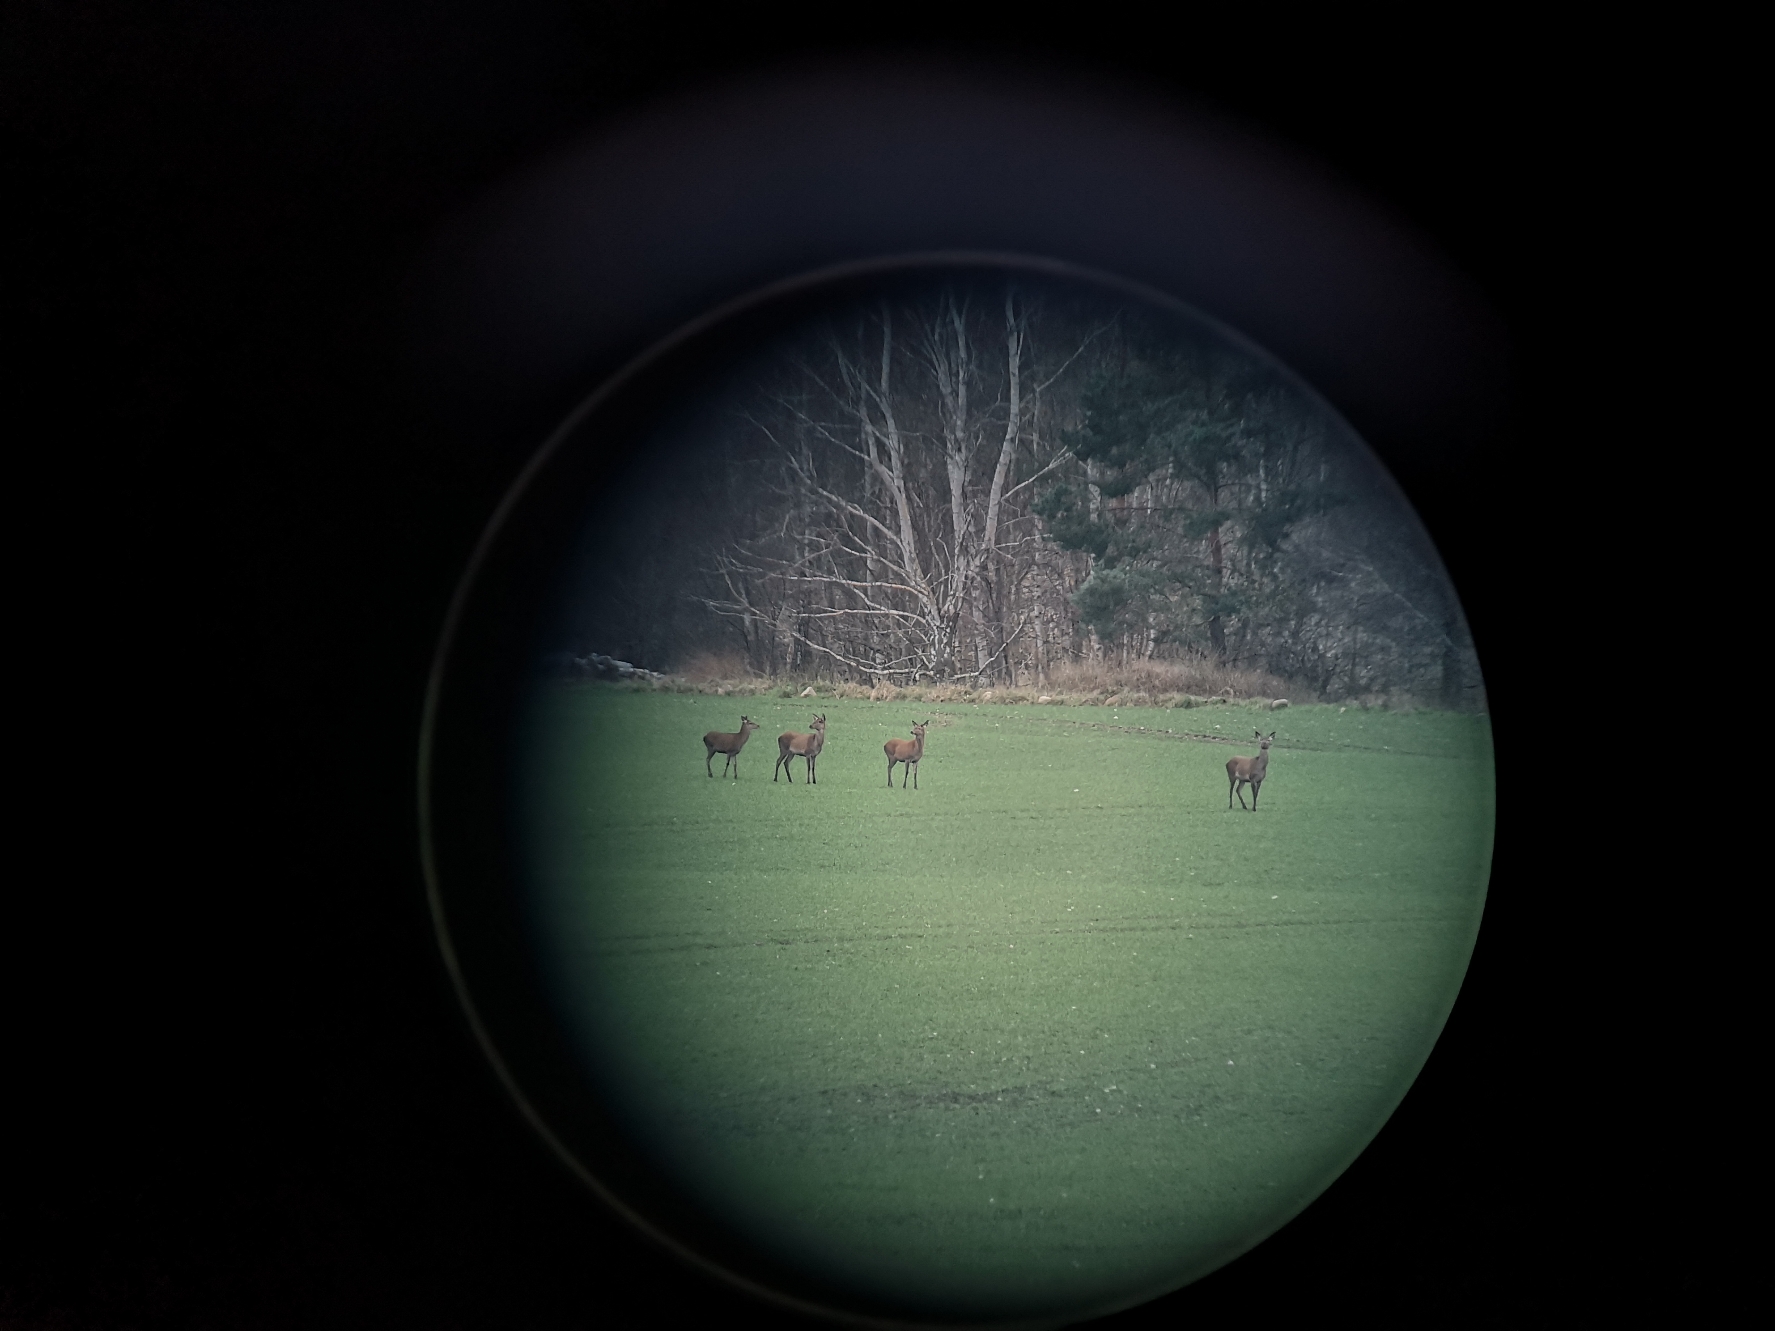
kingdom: Animalia
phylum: Chordata
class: Mammalia
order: Artiodactyla
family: Cervidae
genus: Cervus
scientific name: Cervus elaphus
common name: Krondyr
